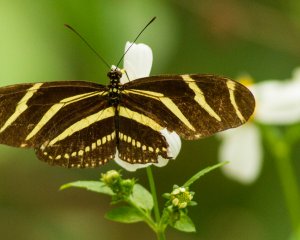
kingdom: Animalia
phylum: Arthropoda
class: Insecta
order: Lepidoptera
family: Nymphalidae
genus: Heliconius
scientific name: Heliconius charithonia
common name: Zebra Longwing
